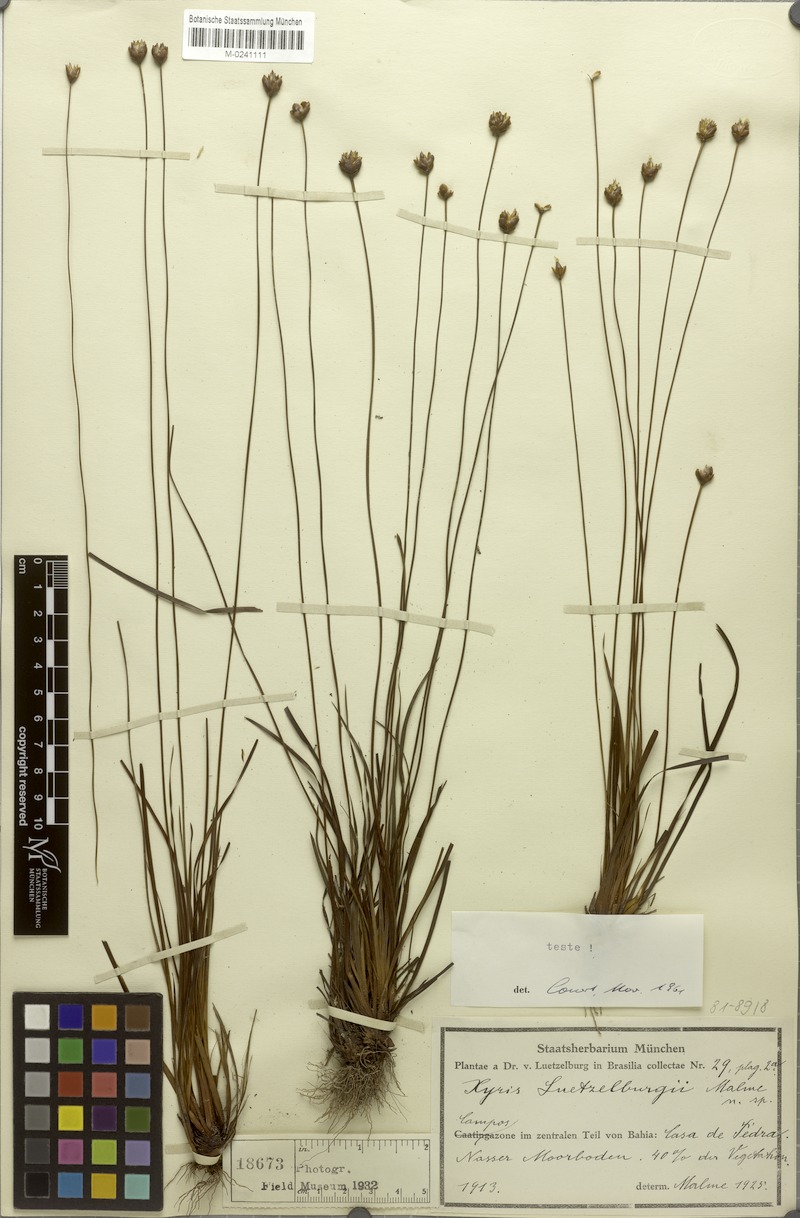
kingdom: Plantae
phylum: Tracheophyta
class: Liliopsida
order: Poales
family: Xyridaceae
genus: Xyris
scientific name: Xyris luetzelburgii
